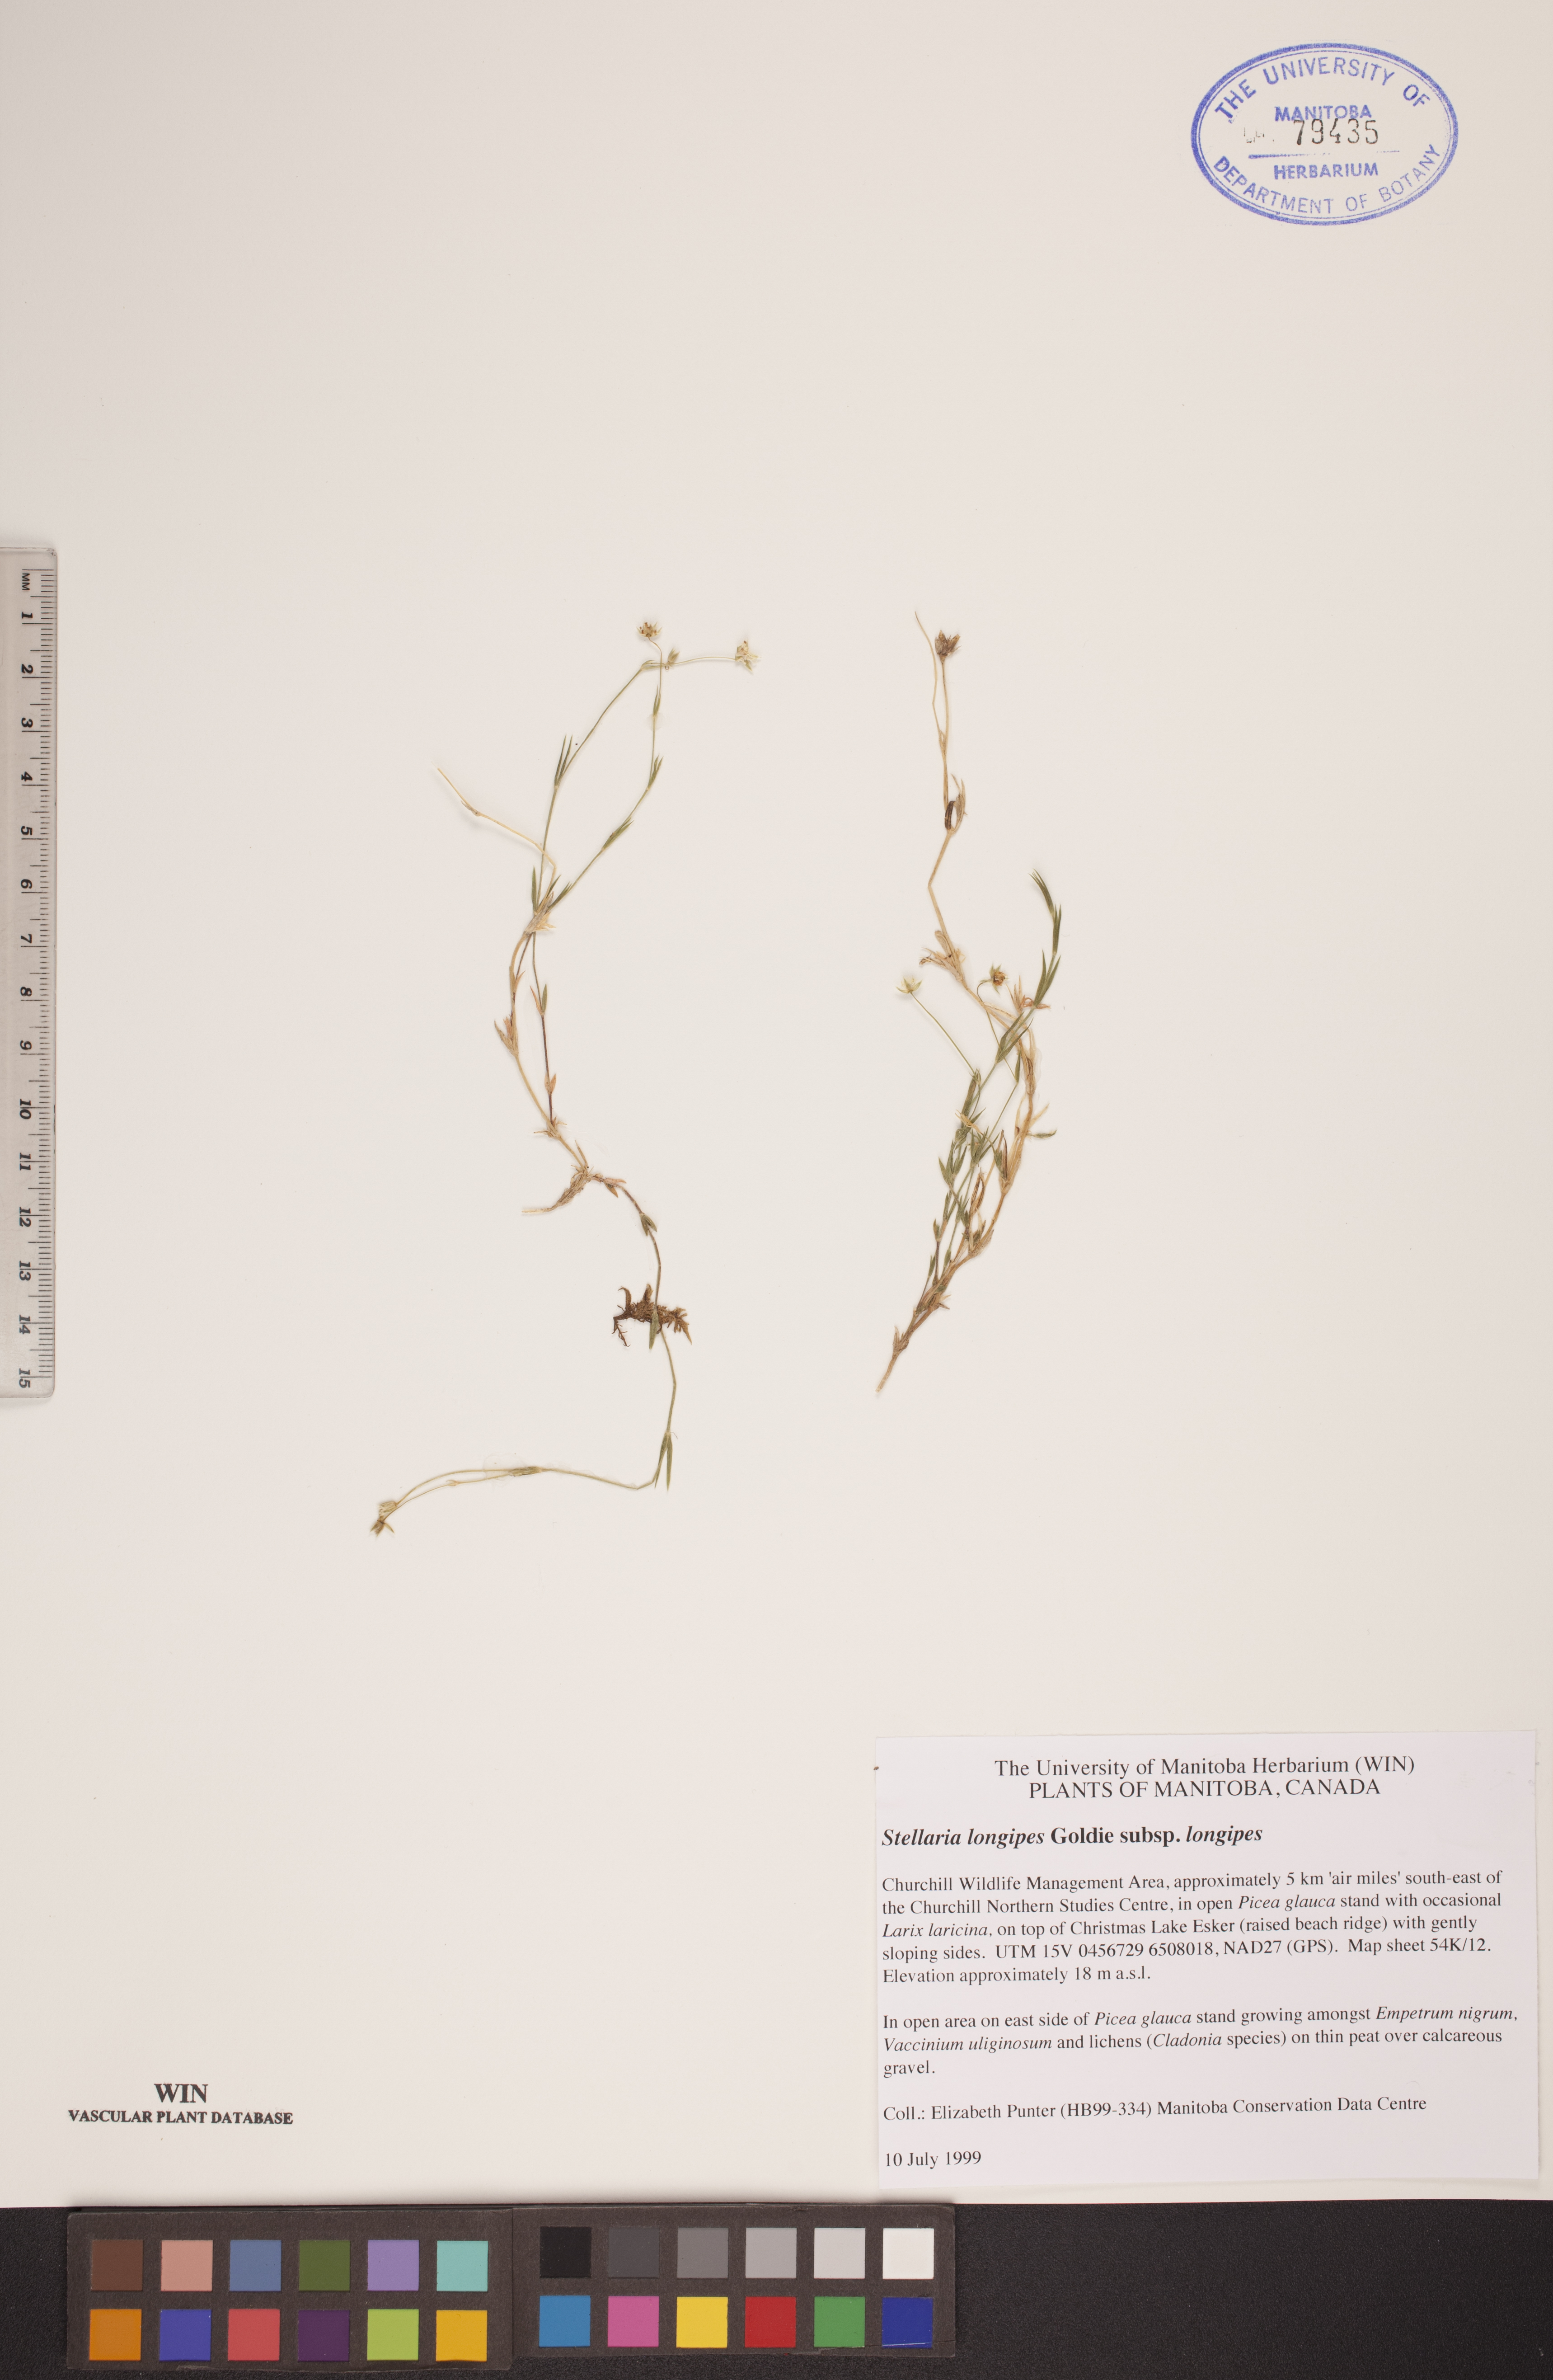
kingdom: Plantae
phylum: Tracheophyta
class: Magnoliopsida
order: Caryophyllales
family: Caryophyllaceae
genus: Stellaria
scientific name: Stellaria longipes
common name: Goldie's starwort
